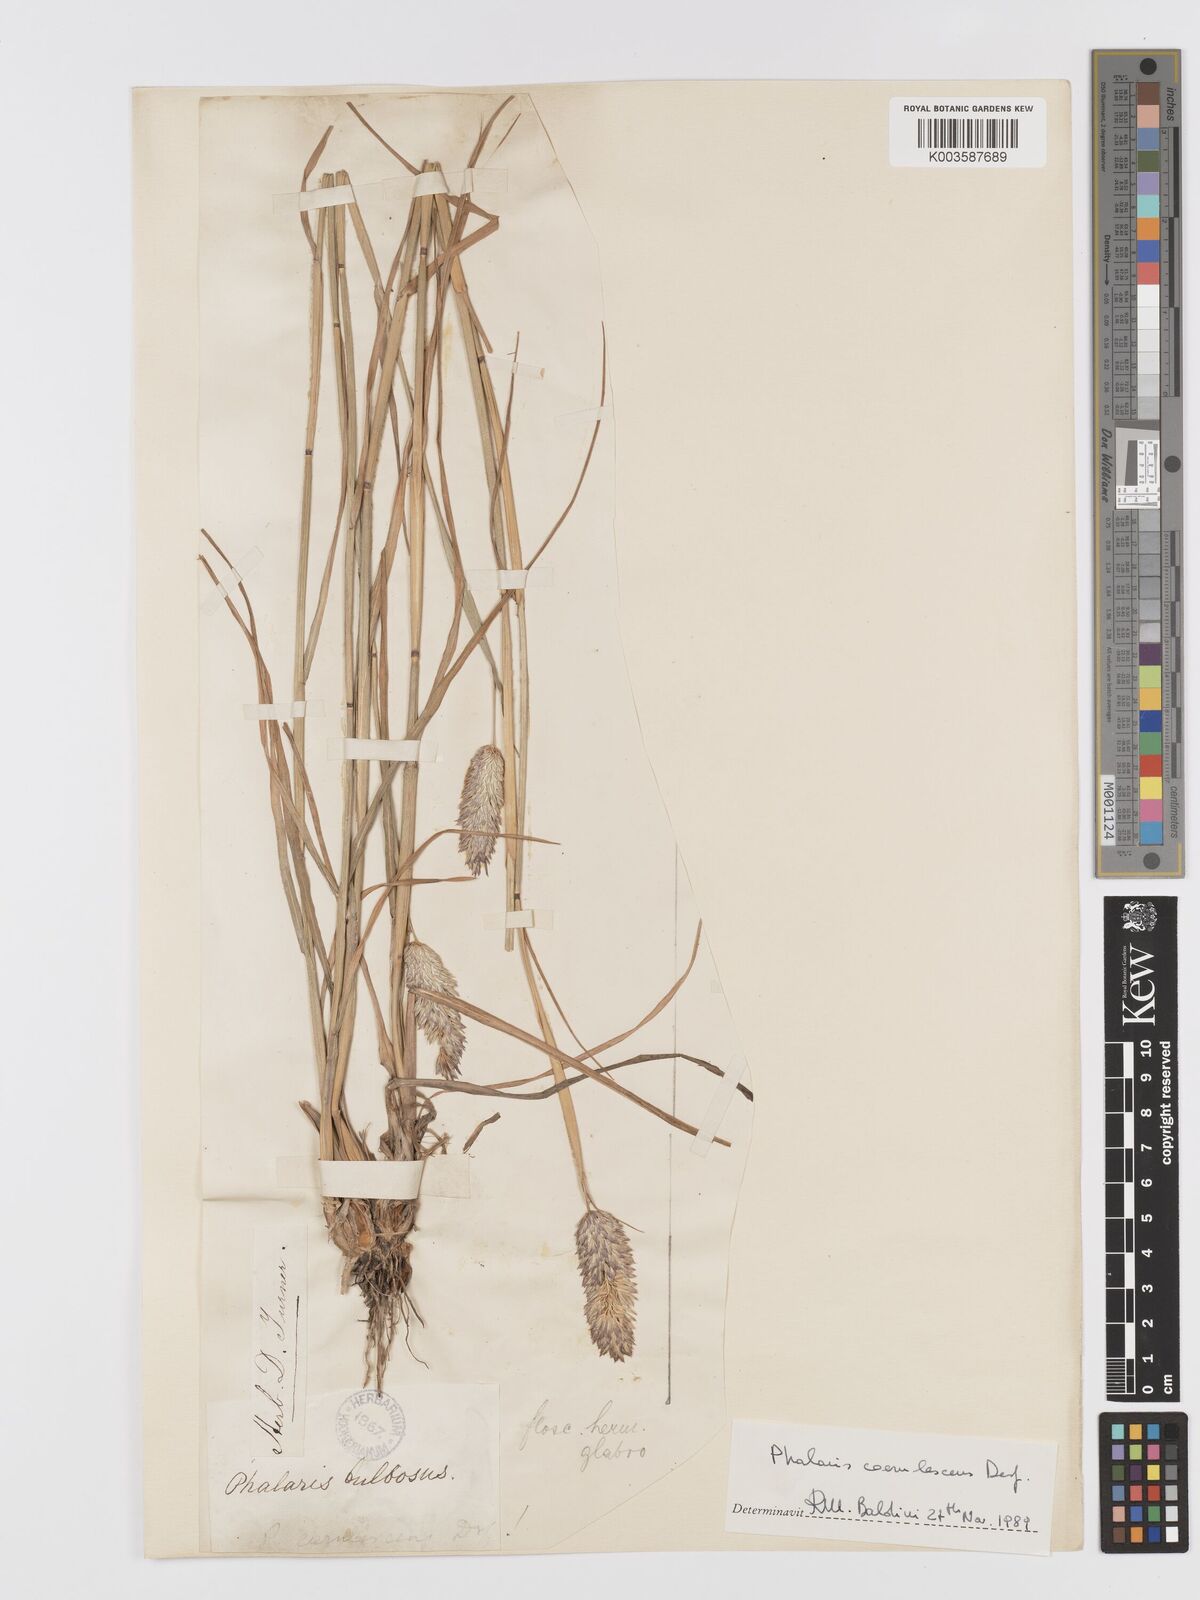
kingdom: Plantae
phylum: Tracheophyta
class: Liliopsida
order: Poales
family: Poaceae
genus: Phalaris
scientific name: Phalaris coerulescens
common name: Sunolgrass
